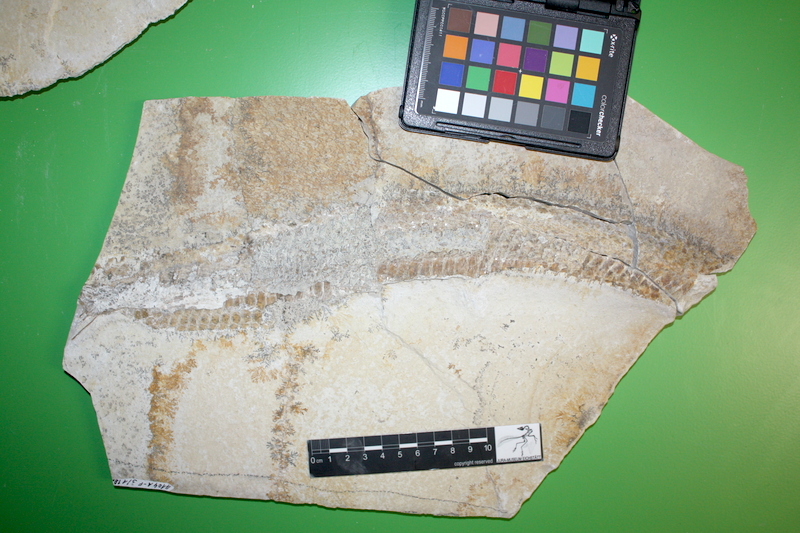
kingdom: Animalia
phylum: Chordata
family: Aspidorhynchidae
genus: Aspidorhynchus
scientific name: Aspidorhynchus acutirostris
